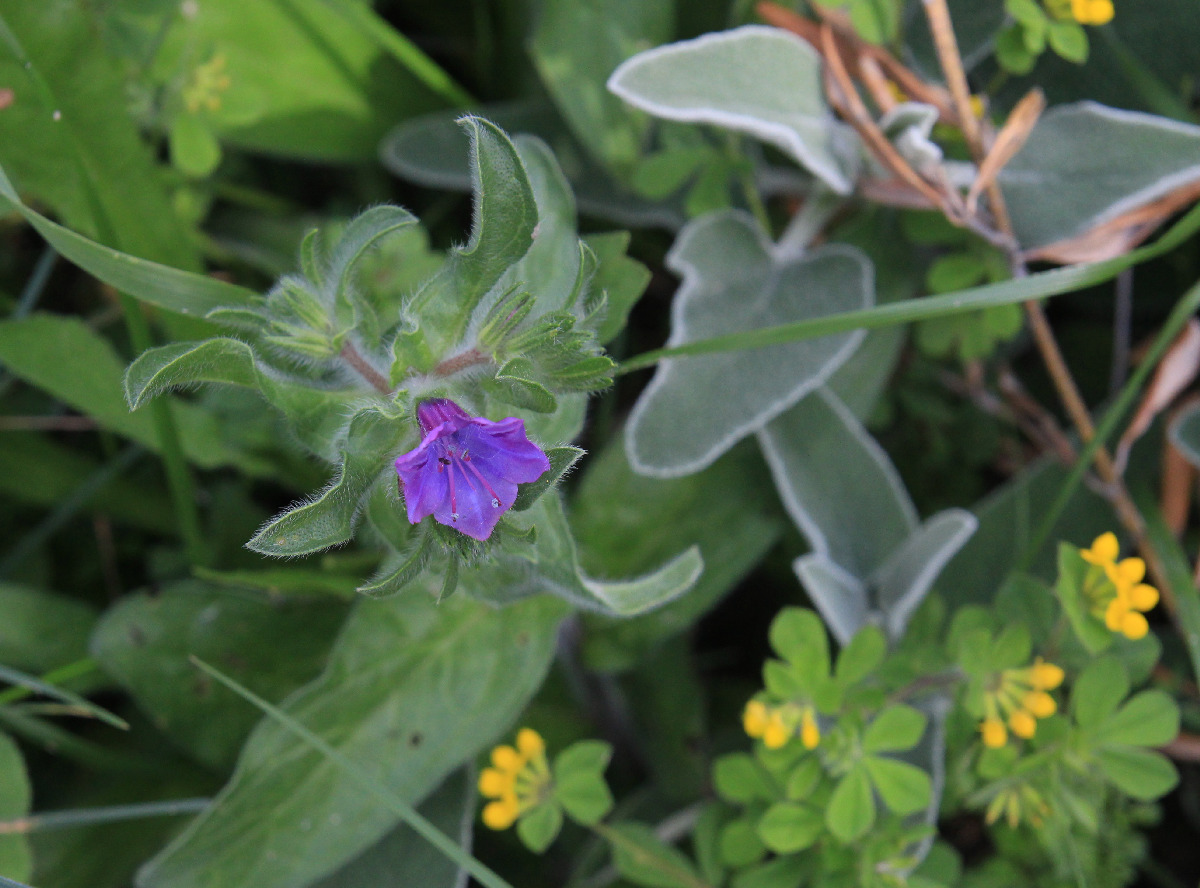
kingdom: Plantae
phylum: Tracheophyta
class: Magnoliopsida
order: Boraginales
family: Boraginaceae
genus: Echium
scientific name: Echium plantagineum
